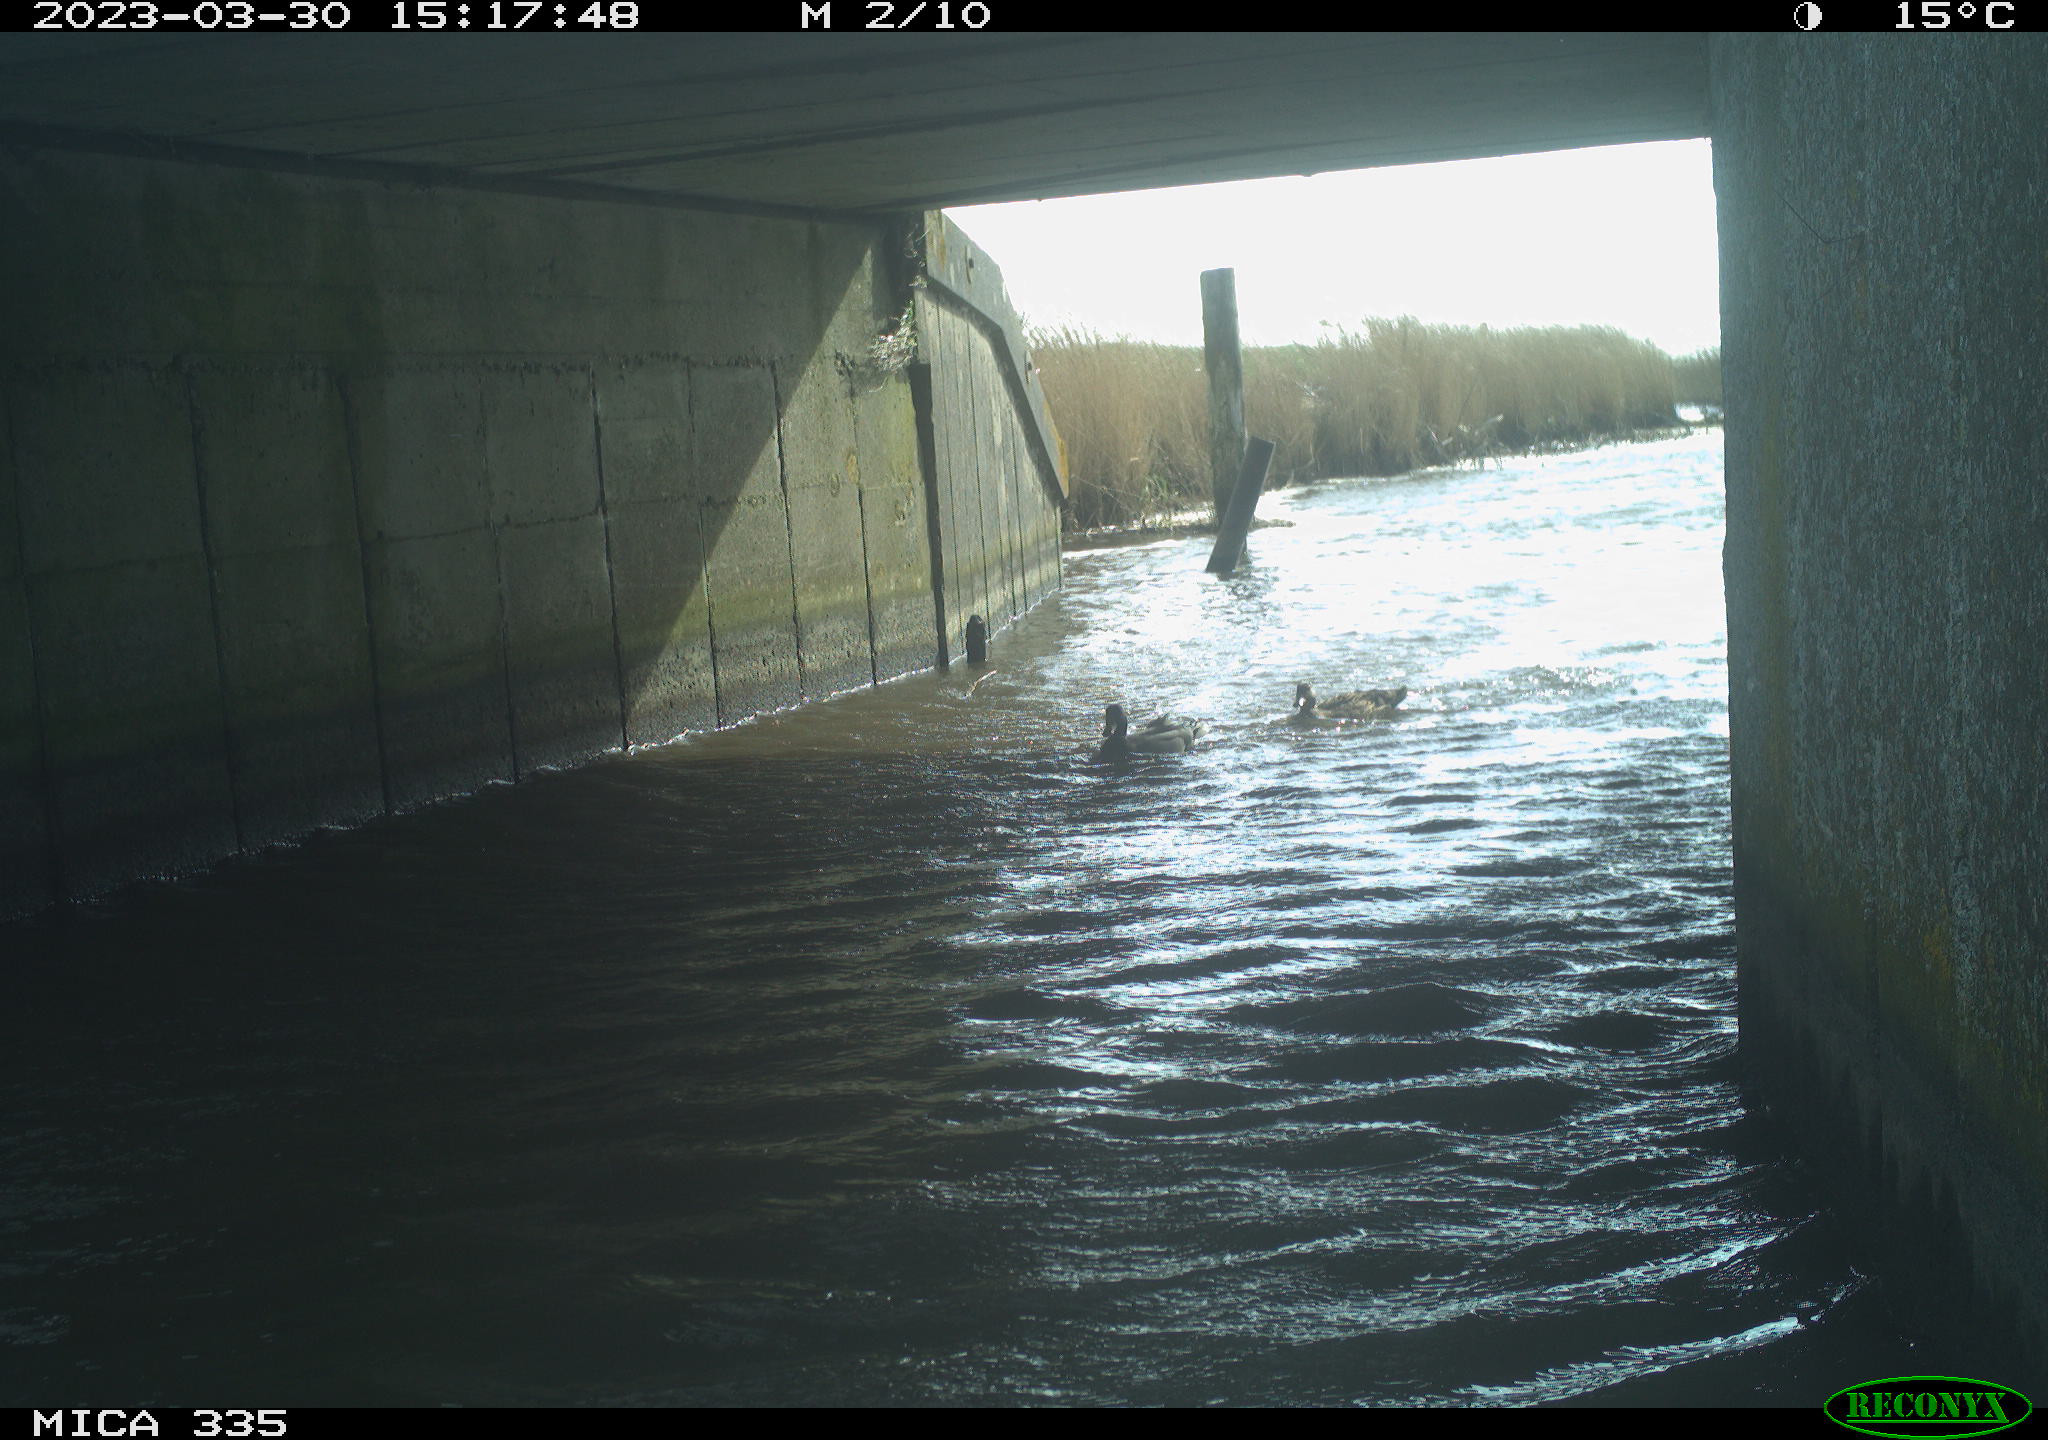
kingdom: Animalia
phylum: Chordata
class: Aves
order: Anseriformes
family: Anatidae
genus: Anas
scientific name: Anas platyrhynchos
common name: Mallard
